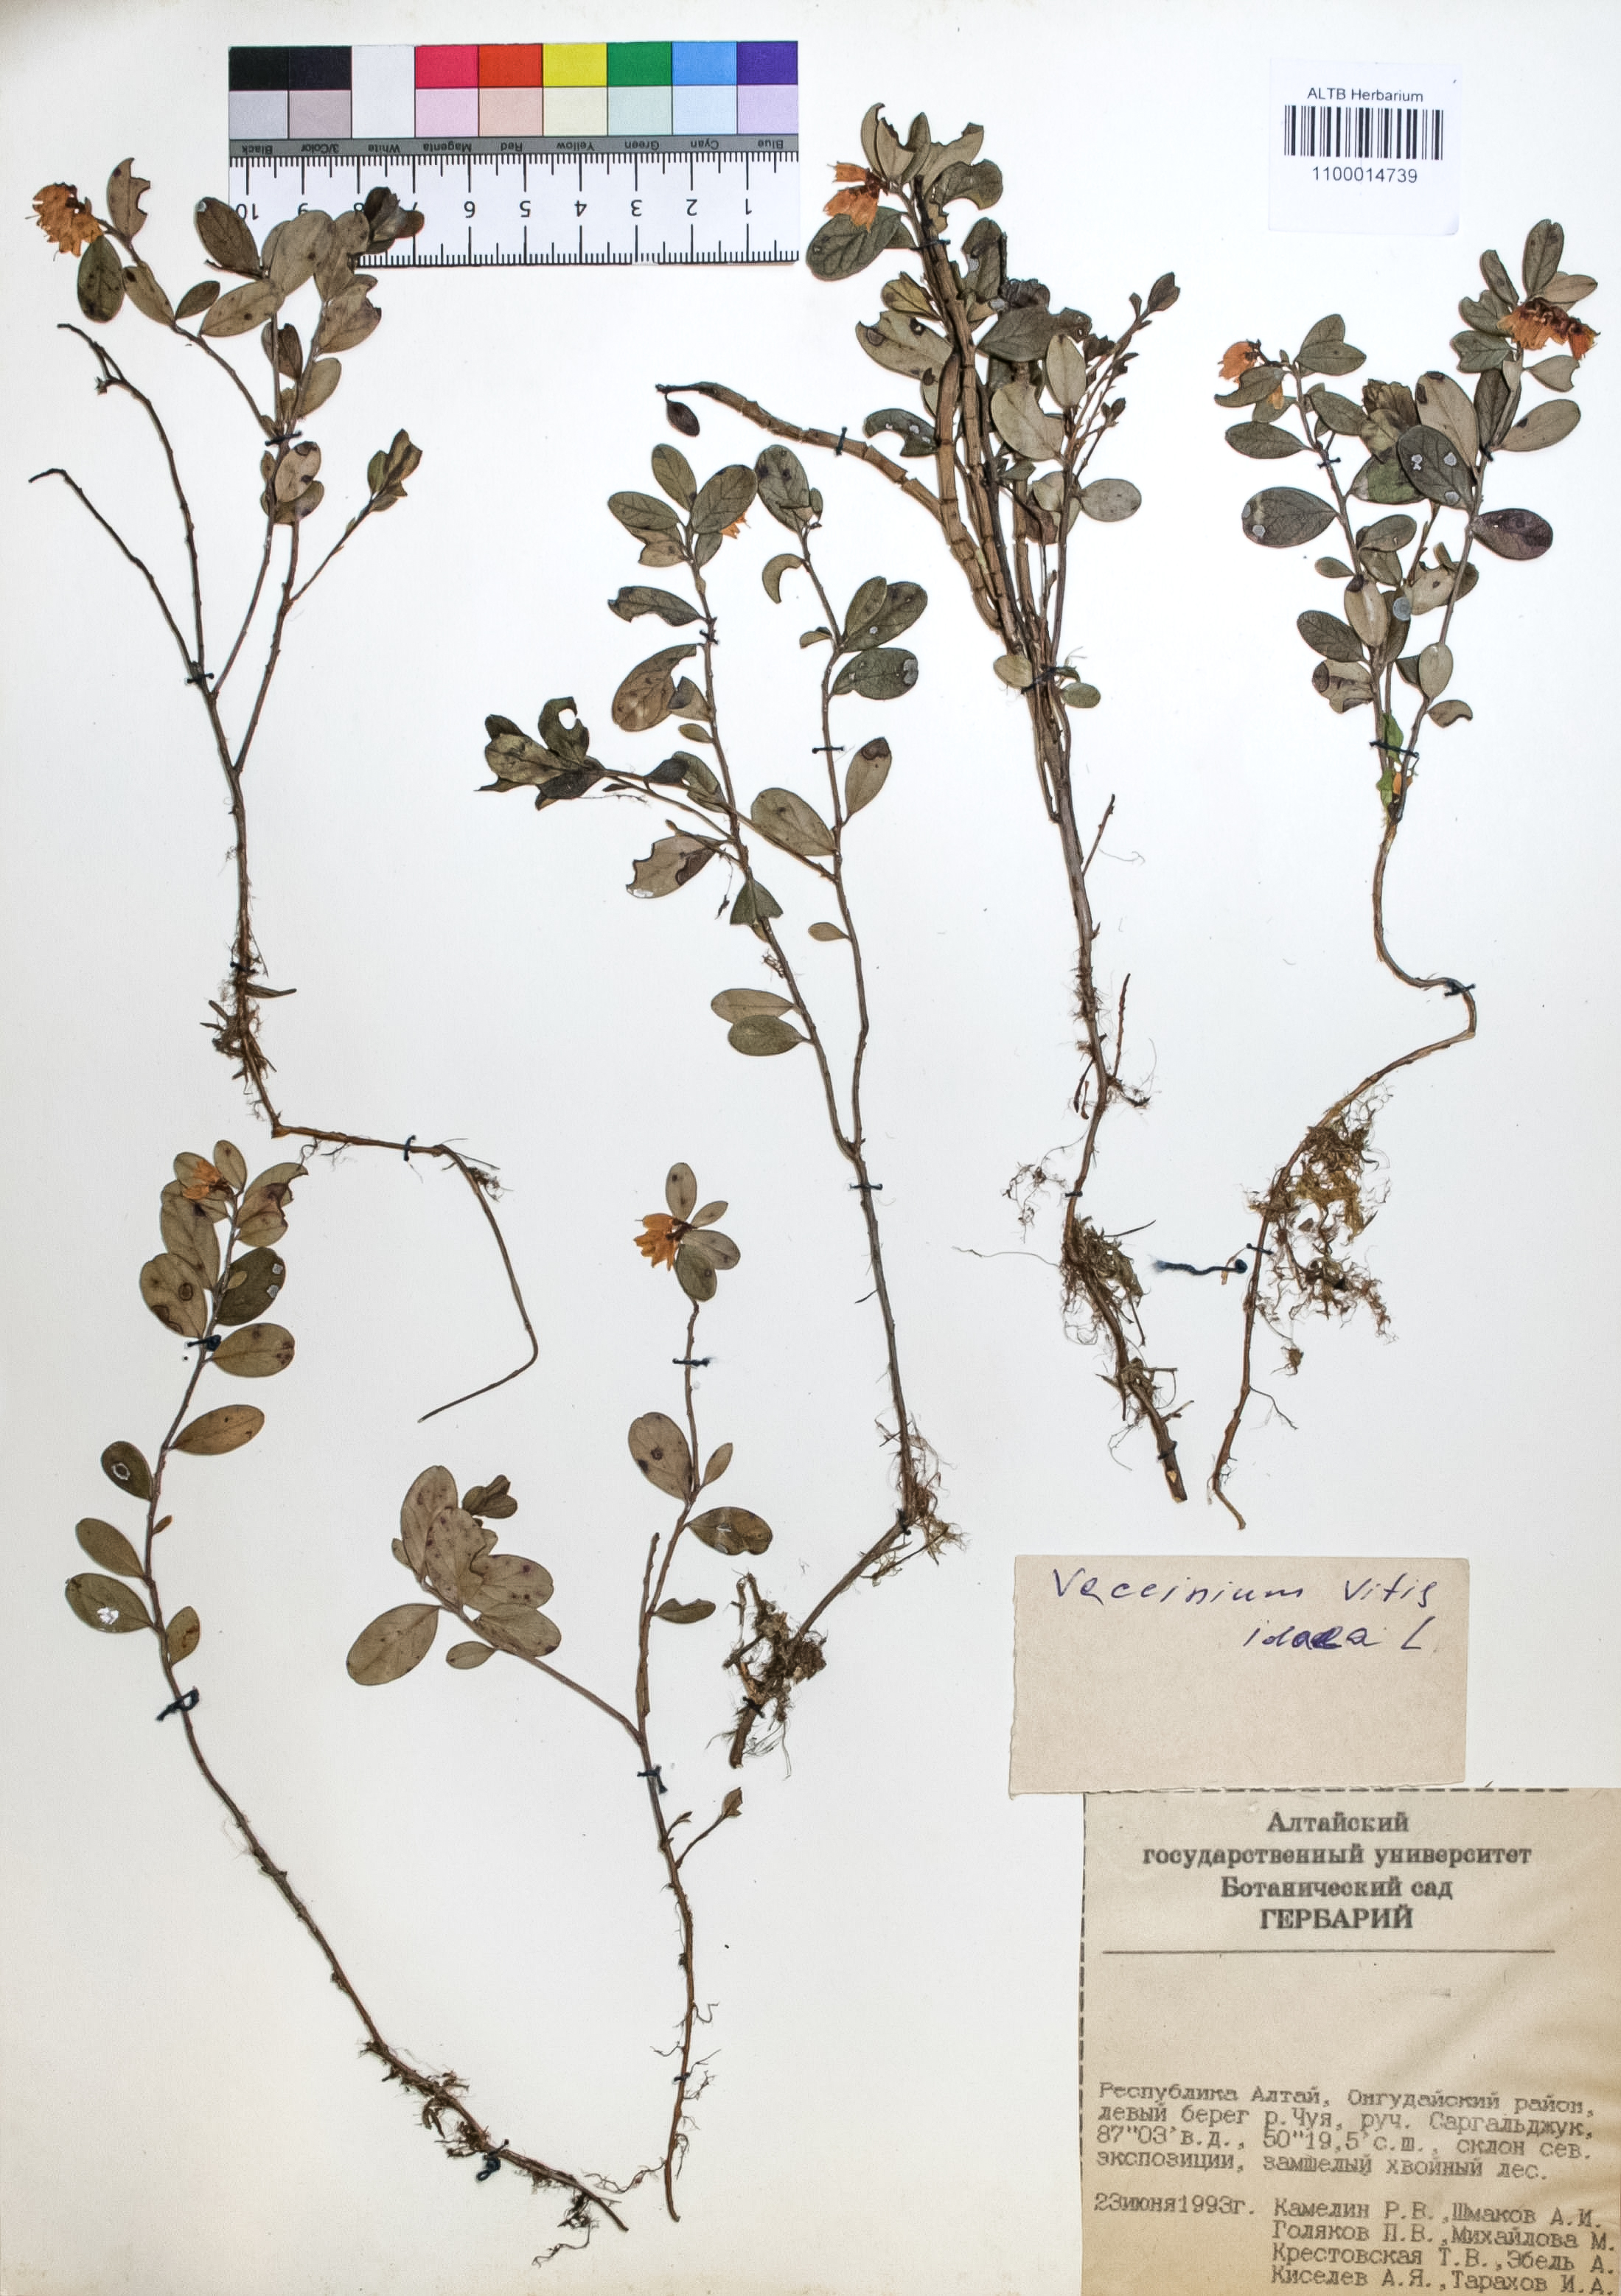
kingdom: Plantae
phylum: Tracheophyta
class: Magnoliopsida
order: Ericales
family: Ericaceae
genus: Vaccinium
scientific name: Vaccinium vitis-idaea
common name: Cowberry
